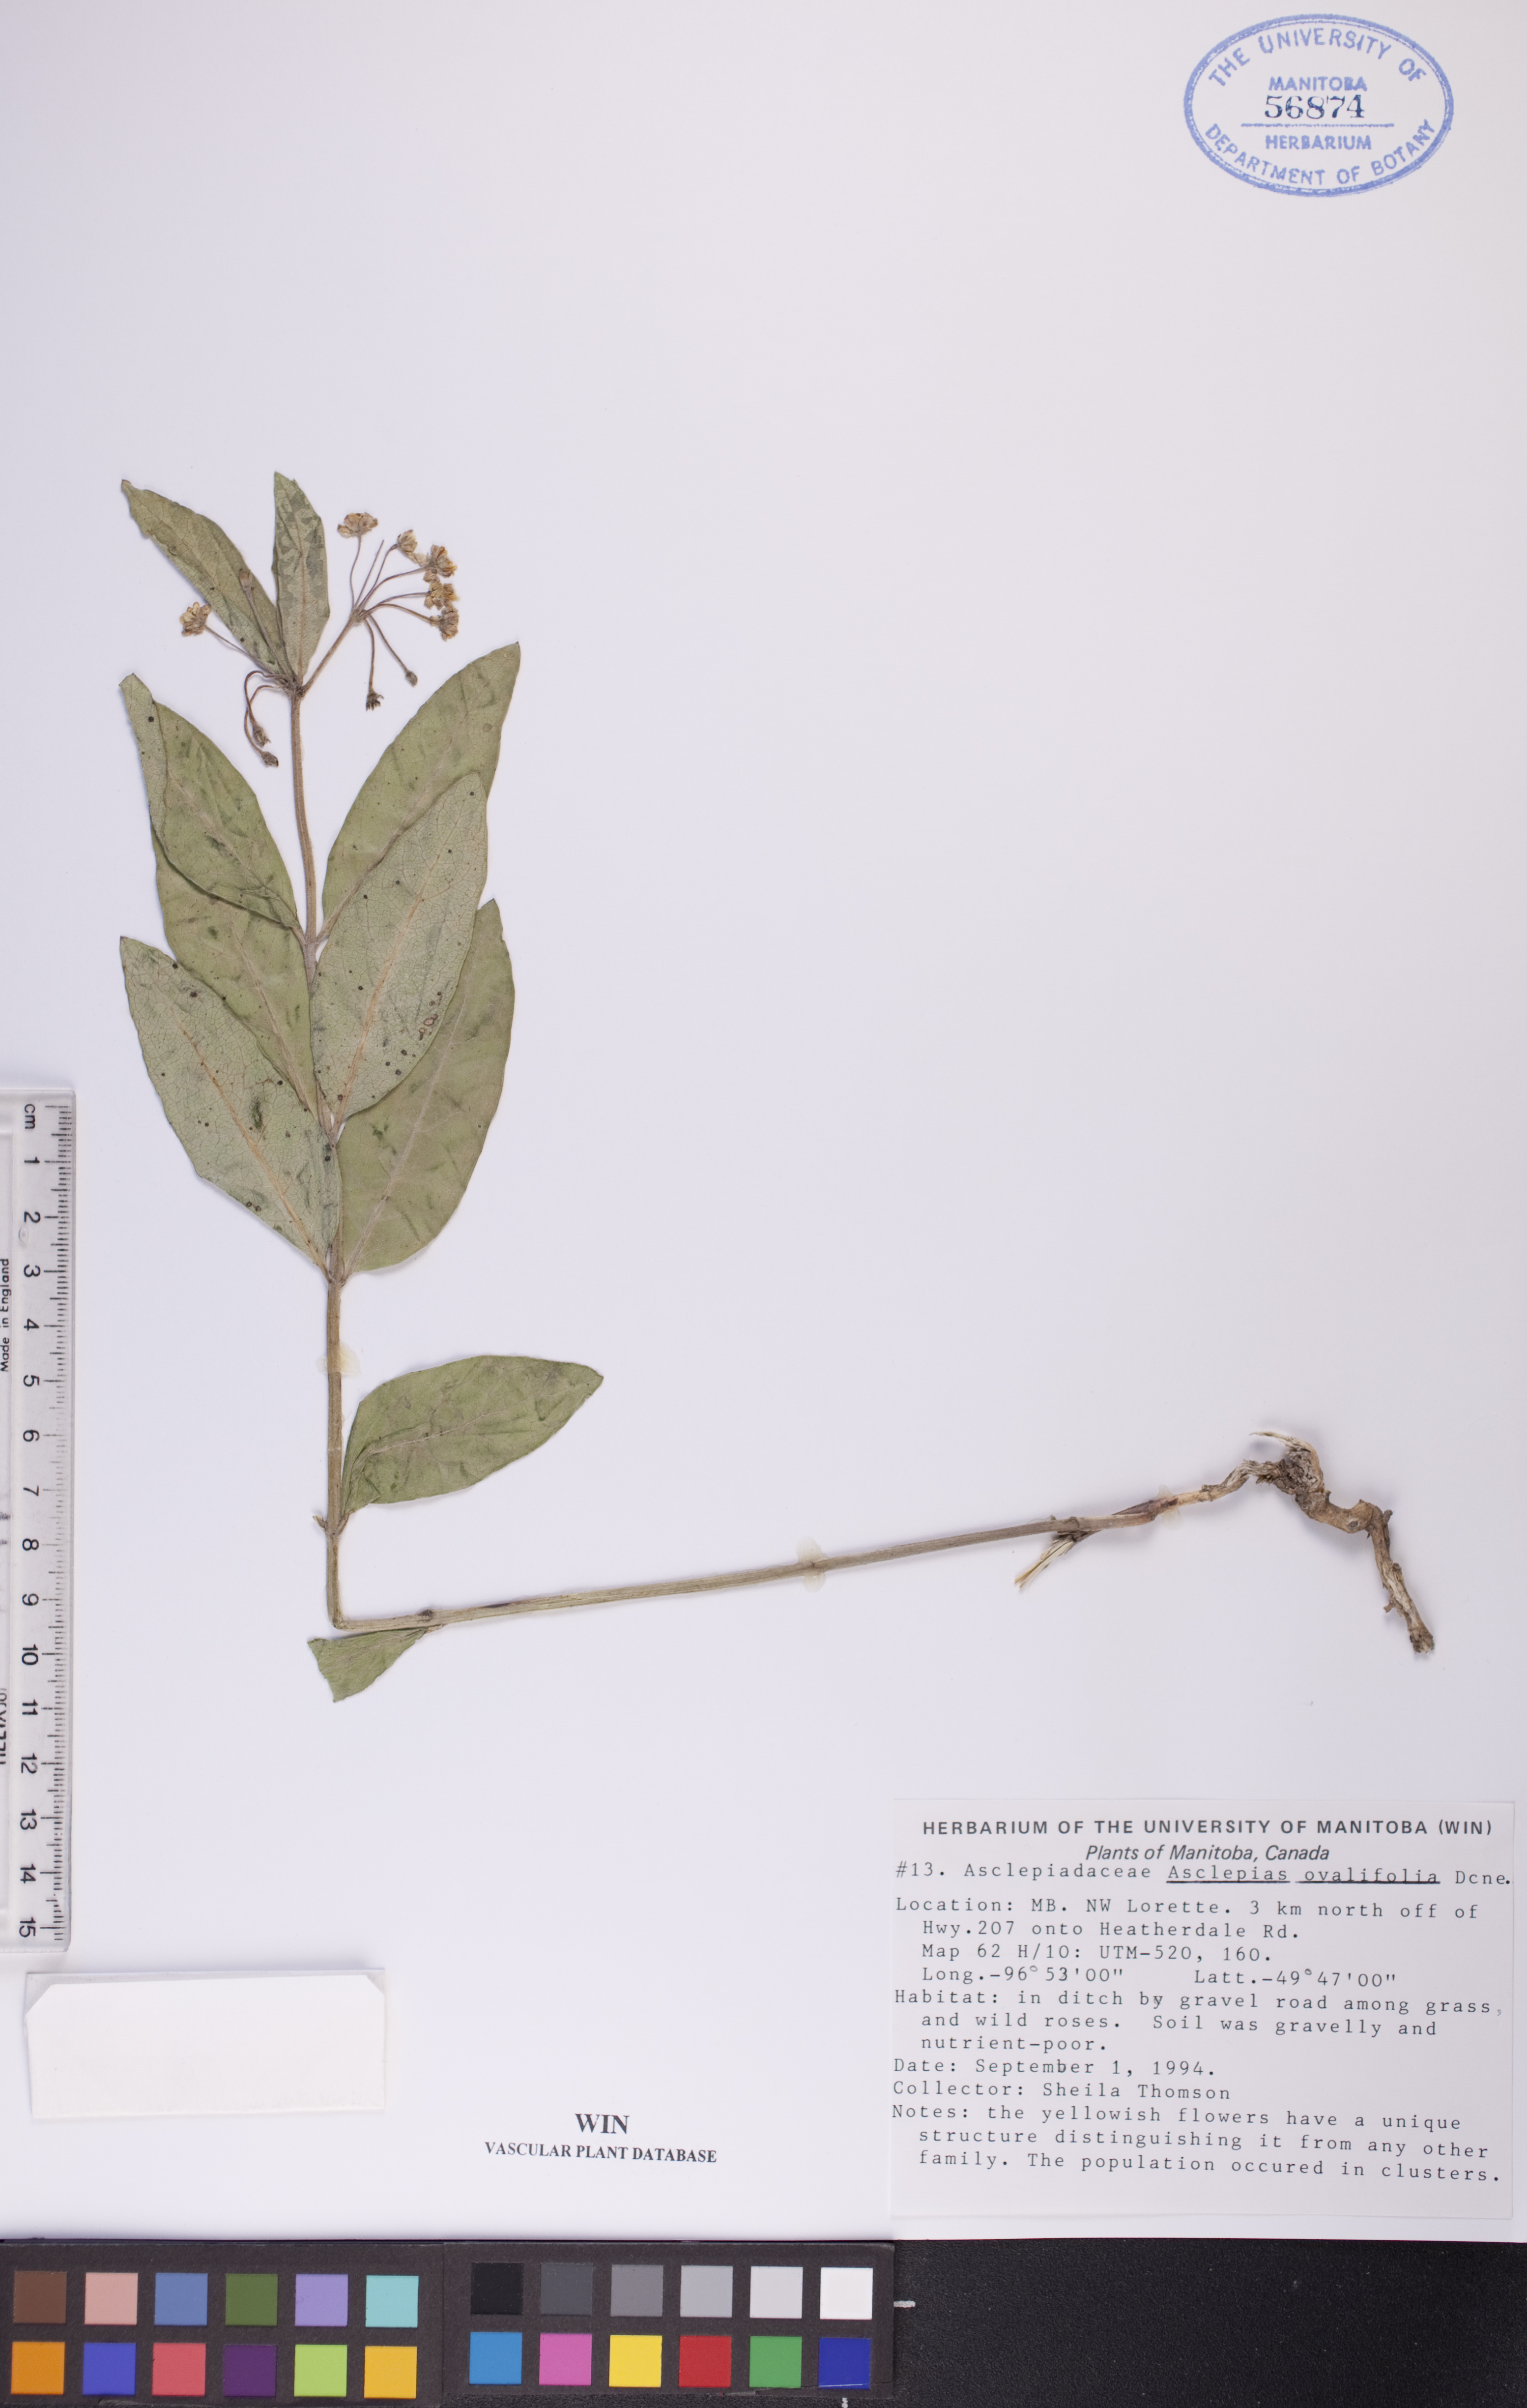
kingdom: Plantae
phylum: Tracheophyta
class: Magnoliopsida
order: Gentianales
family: Apocynaceae
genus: Asclepias
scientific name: Asclepias ovalifolia
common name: Dwarf milkweed
